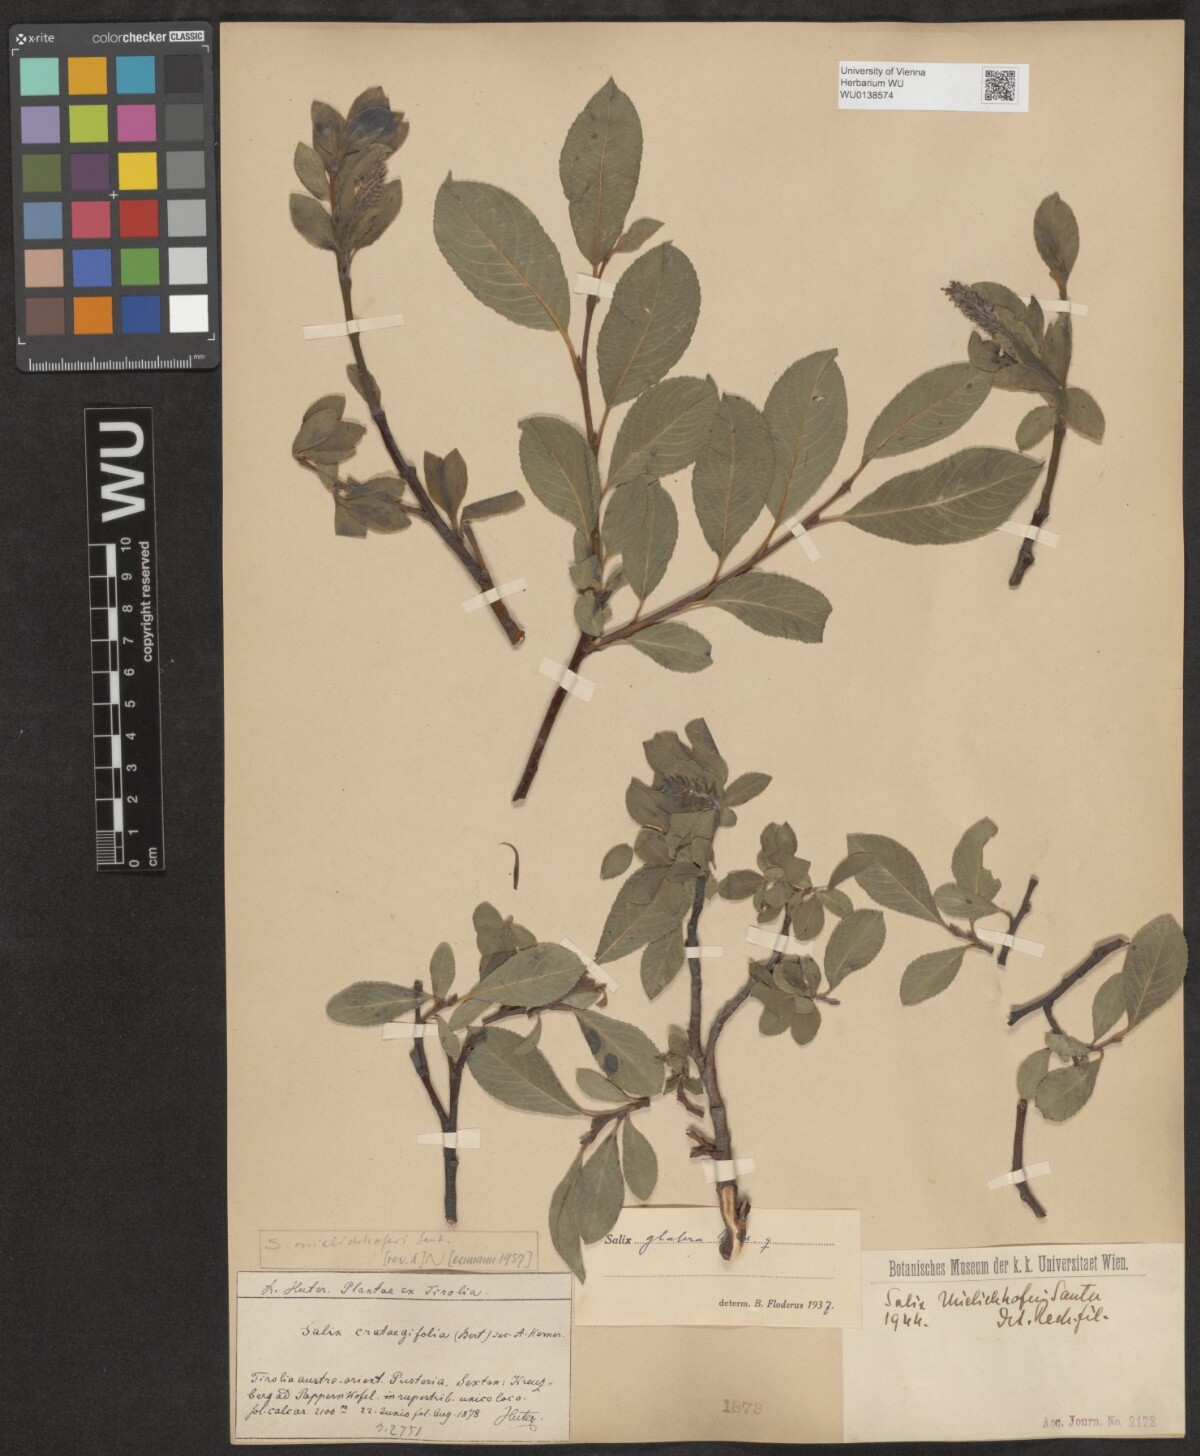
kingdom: Plantae
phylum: Tracheophyta
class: Magnoliopsida
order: Malpighiales
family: Salicaceae
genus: Salix
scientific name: Salix mielichhoferi
